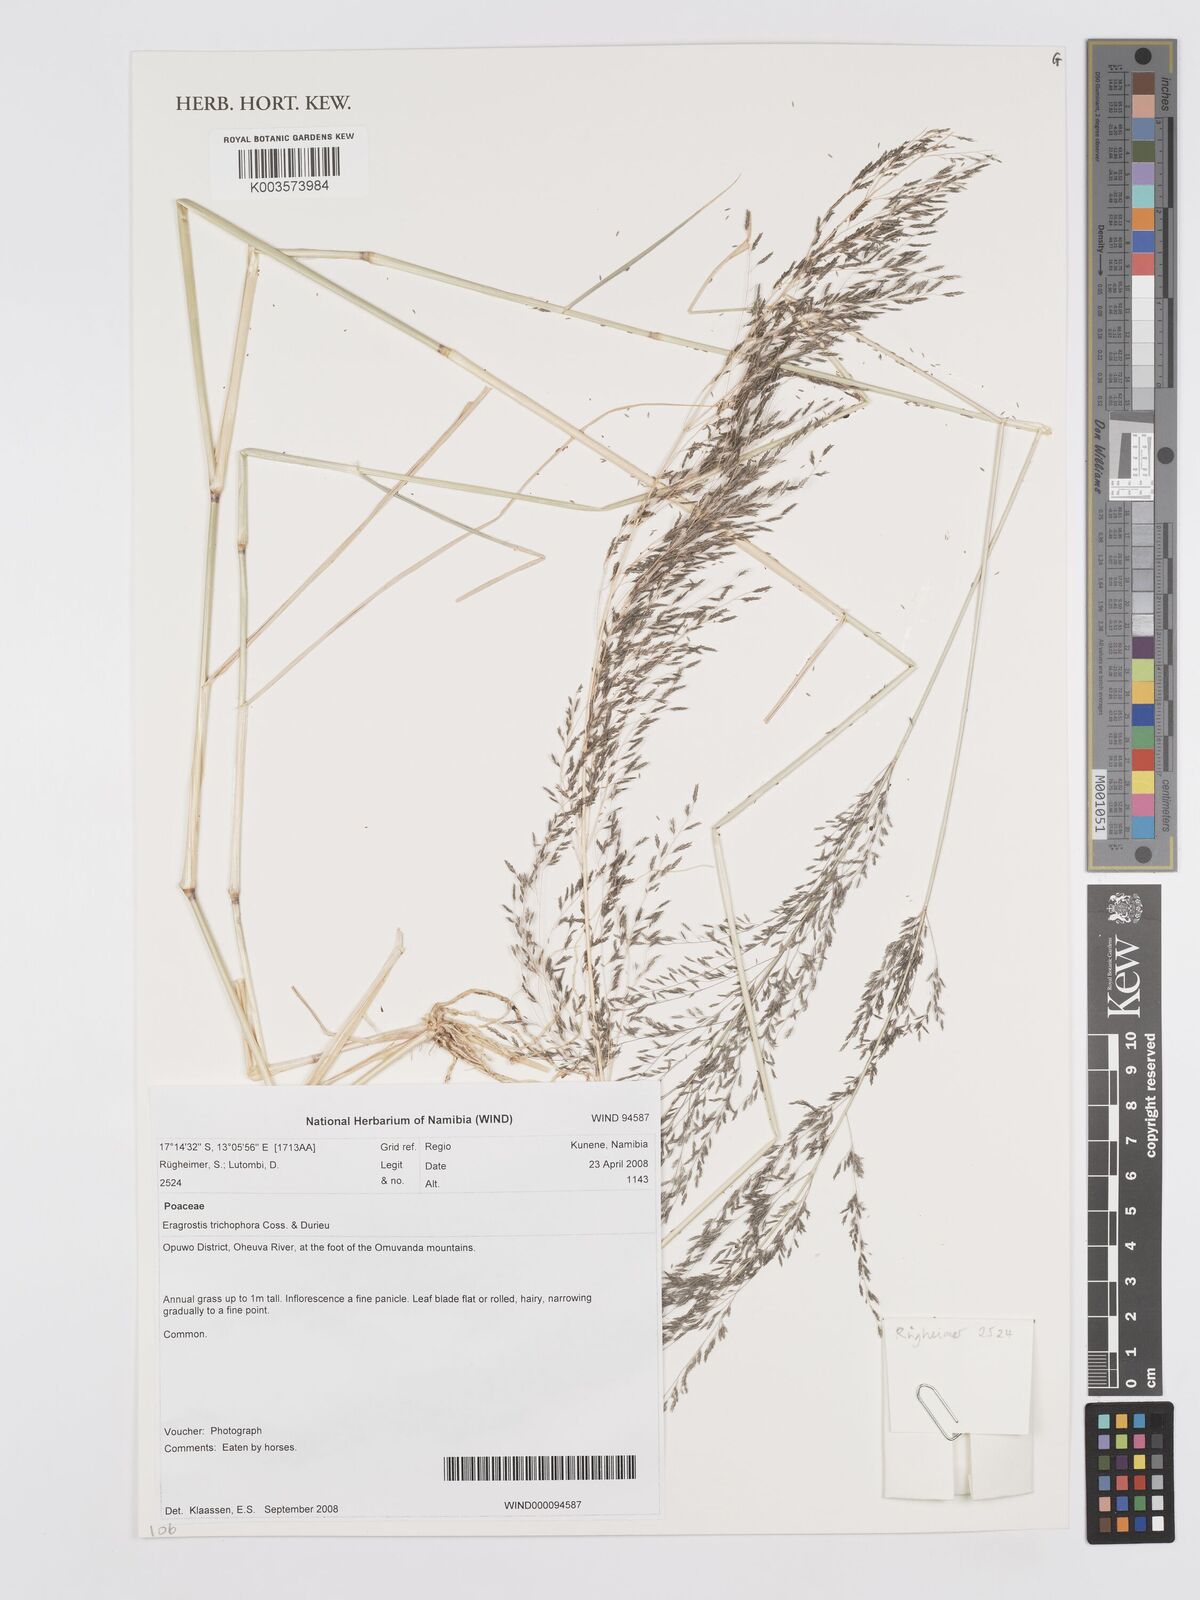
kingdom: Plantae
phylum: Tracheophyta
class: Liliopsida
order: Poales
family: Poaceae
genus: Eragrostis
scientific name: Eragrostis cylindriflora
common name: Cylinderflower lovegrass
